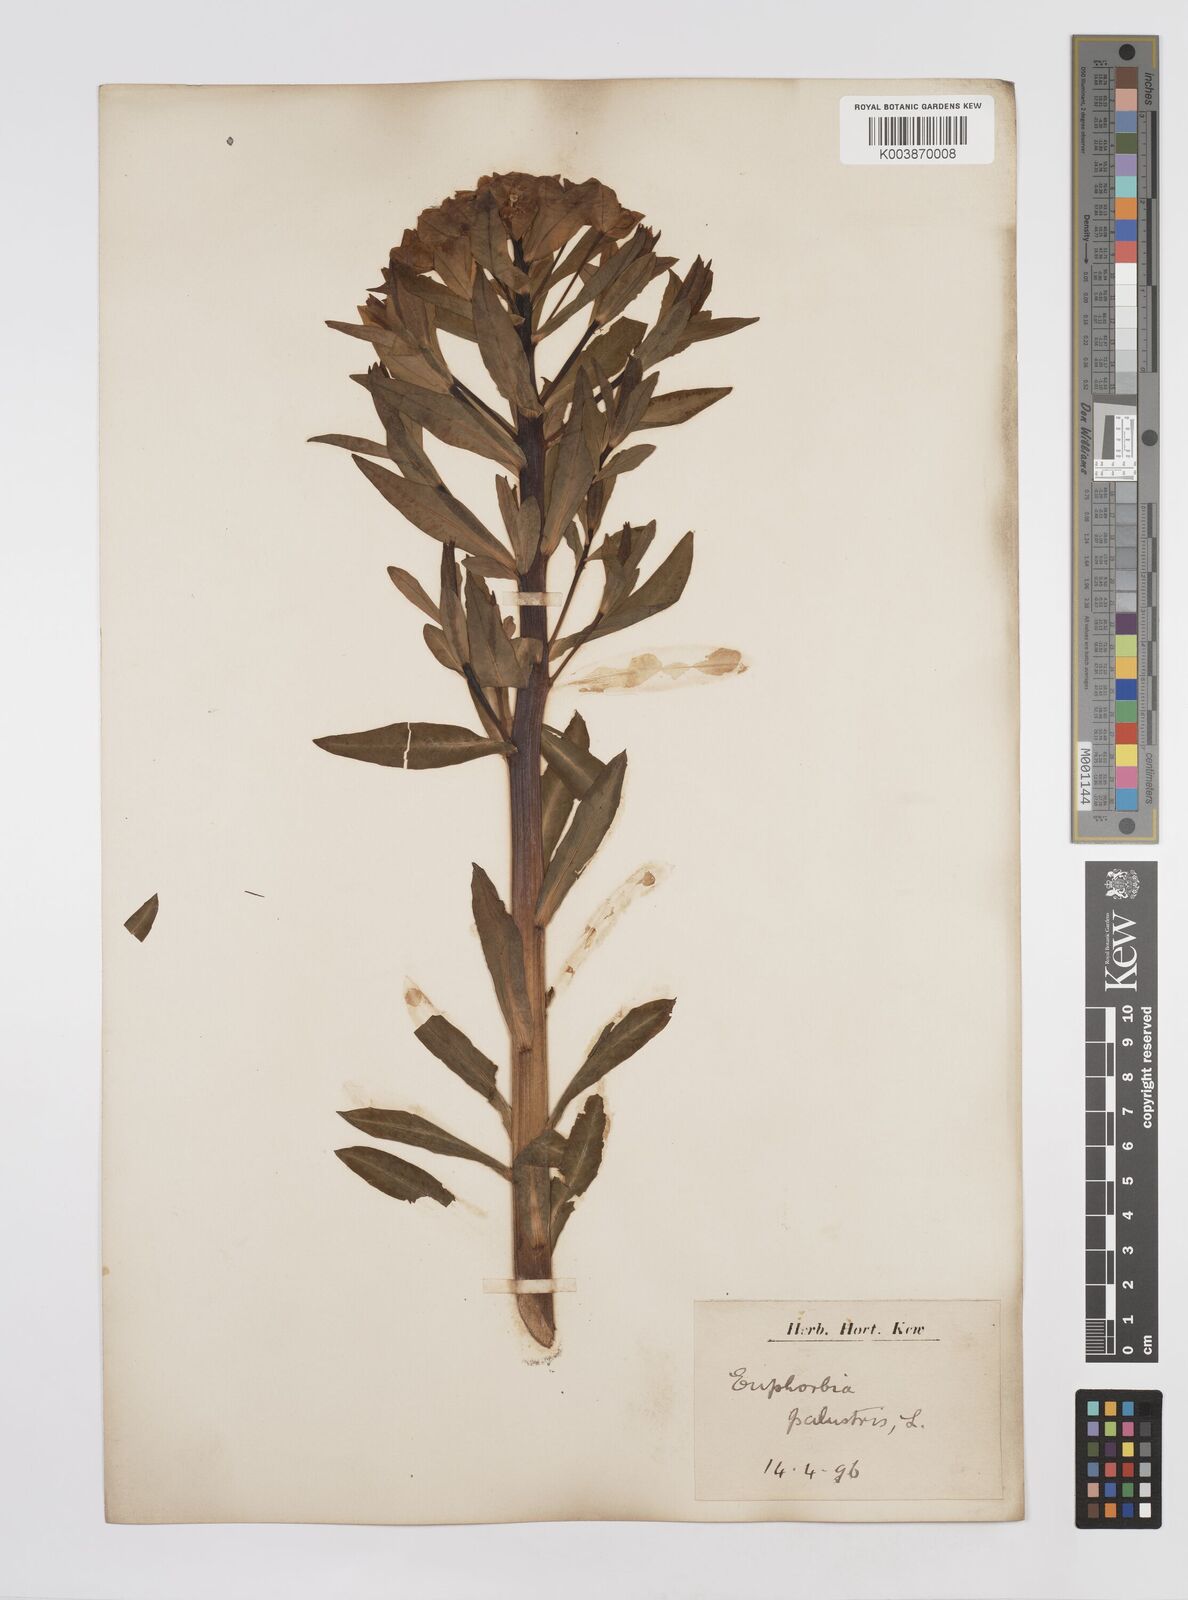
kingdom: Plantae
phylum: Tracheophyta
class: Magnoliopsida
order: Malpighiales
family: Euphorbiaceae
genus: Euphorbia
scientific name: Euphorbia palustris
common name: Marsh spurge
